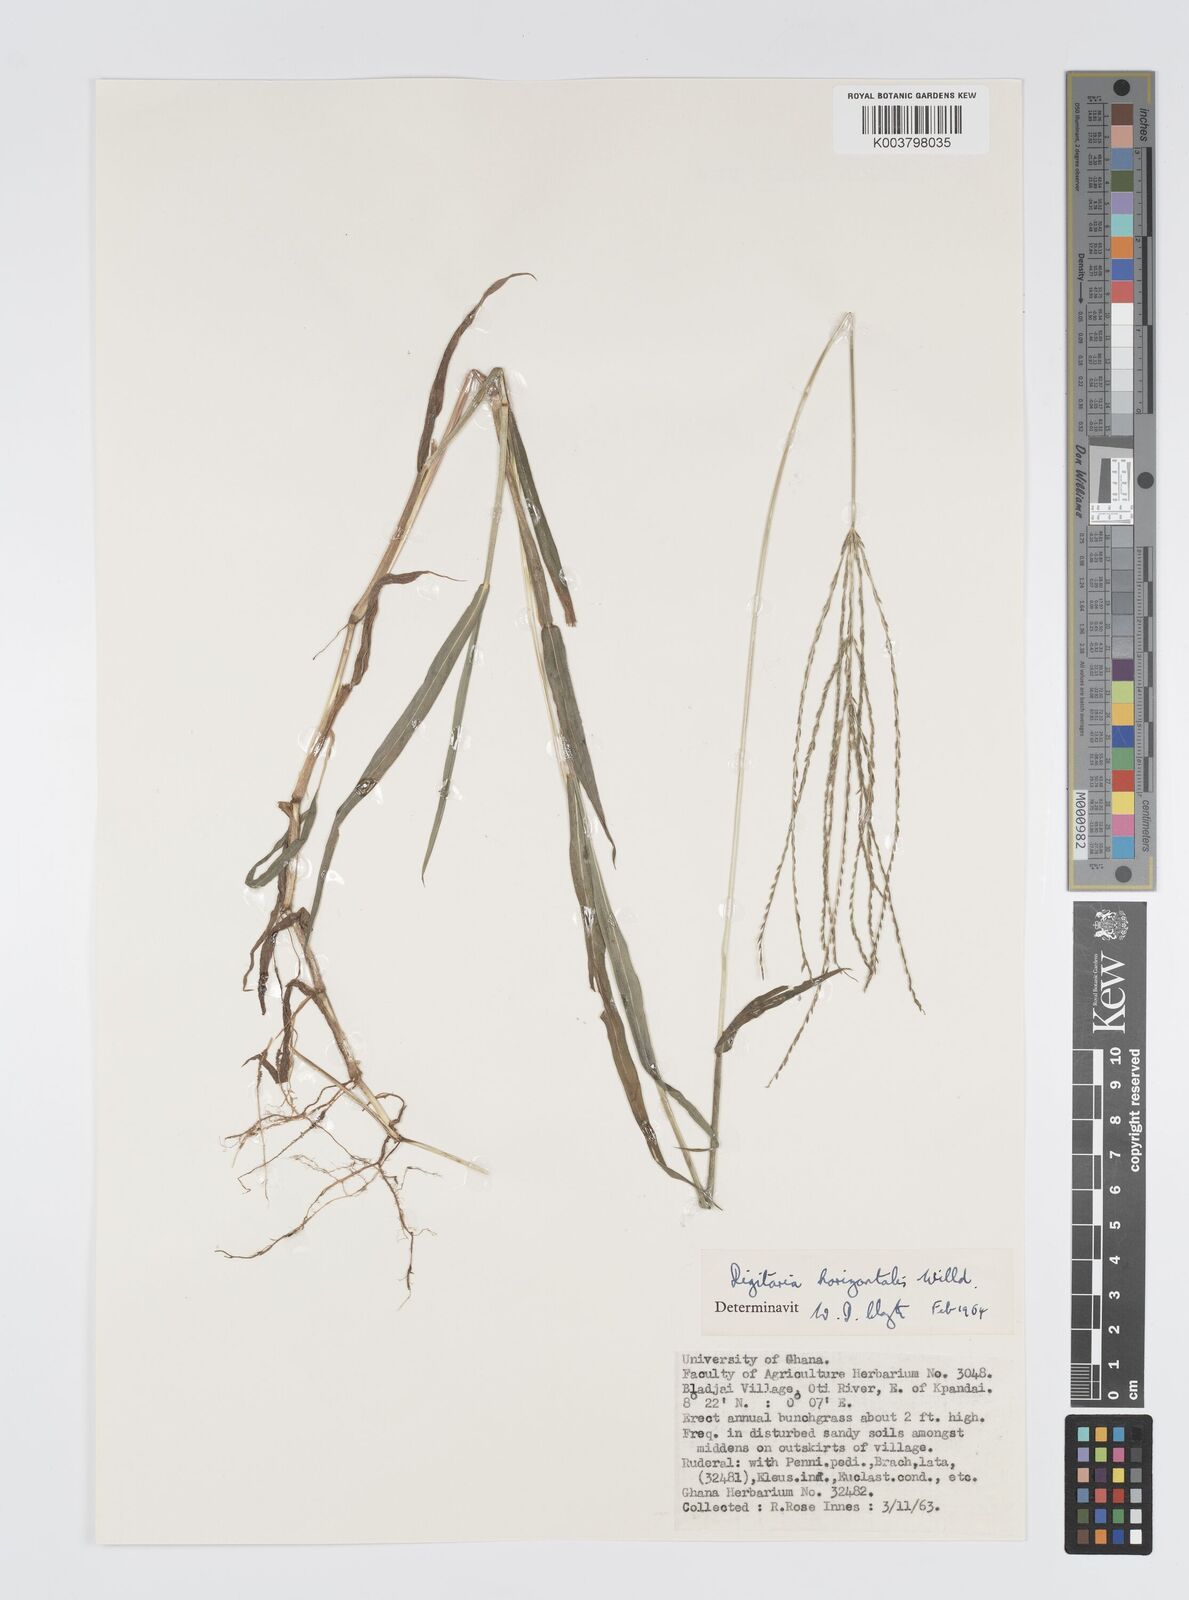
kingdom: Plantae
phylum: Tracheophyta
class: Liliopsida
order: Poales
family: Poaceae
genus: Digitaria
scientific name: Digitaria horizontalis
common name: Jamaican crabgrass
